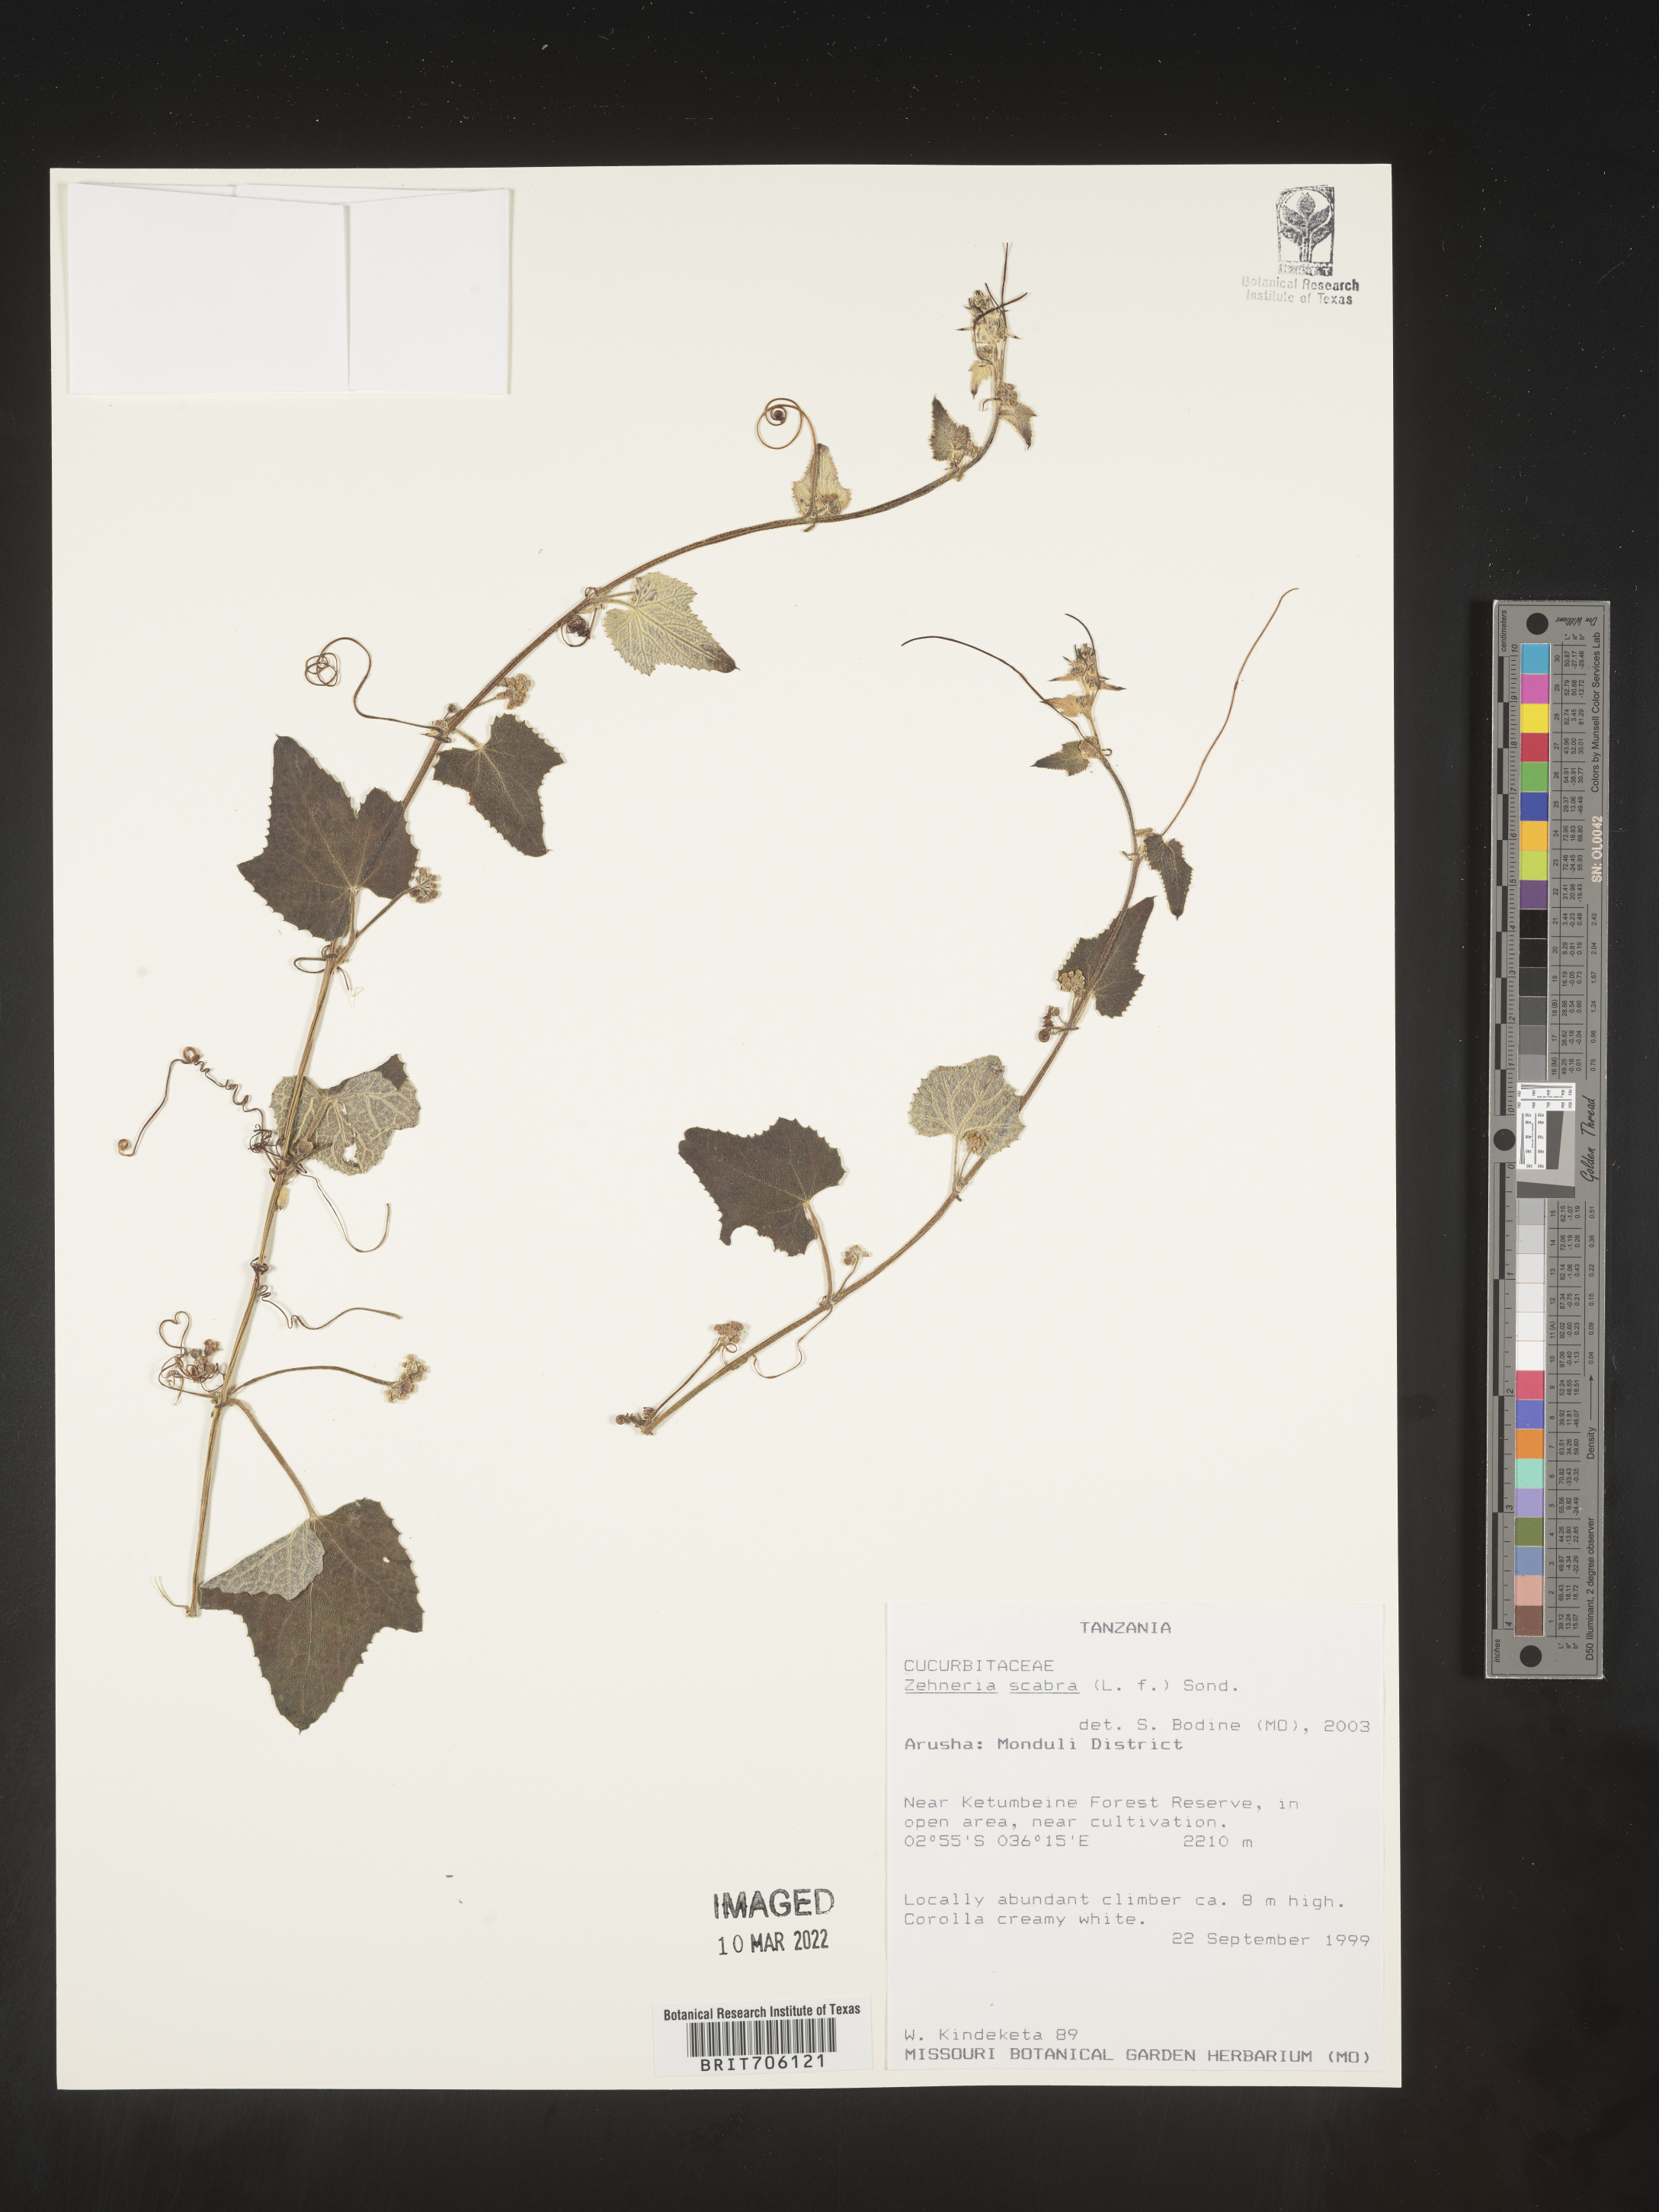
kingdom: Plantae
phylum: Tracheophyta
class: Magnoliopsida
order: Cucurbitales
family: Cucurbitaceae
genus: Zehneria
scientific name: Zehneria
